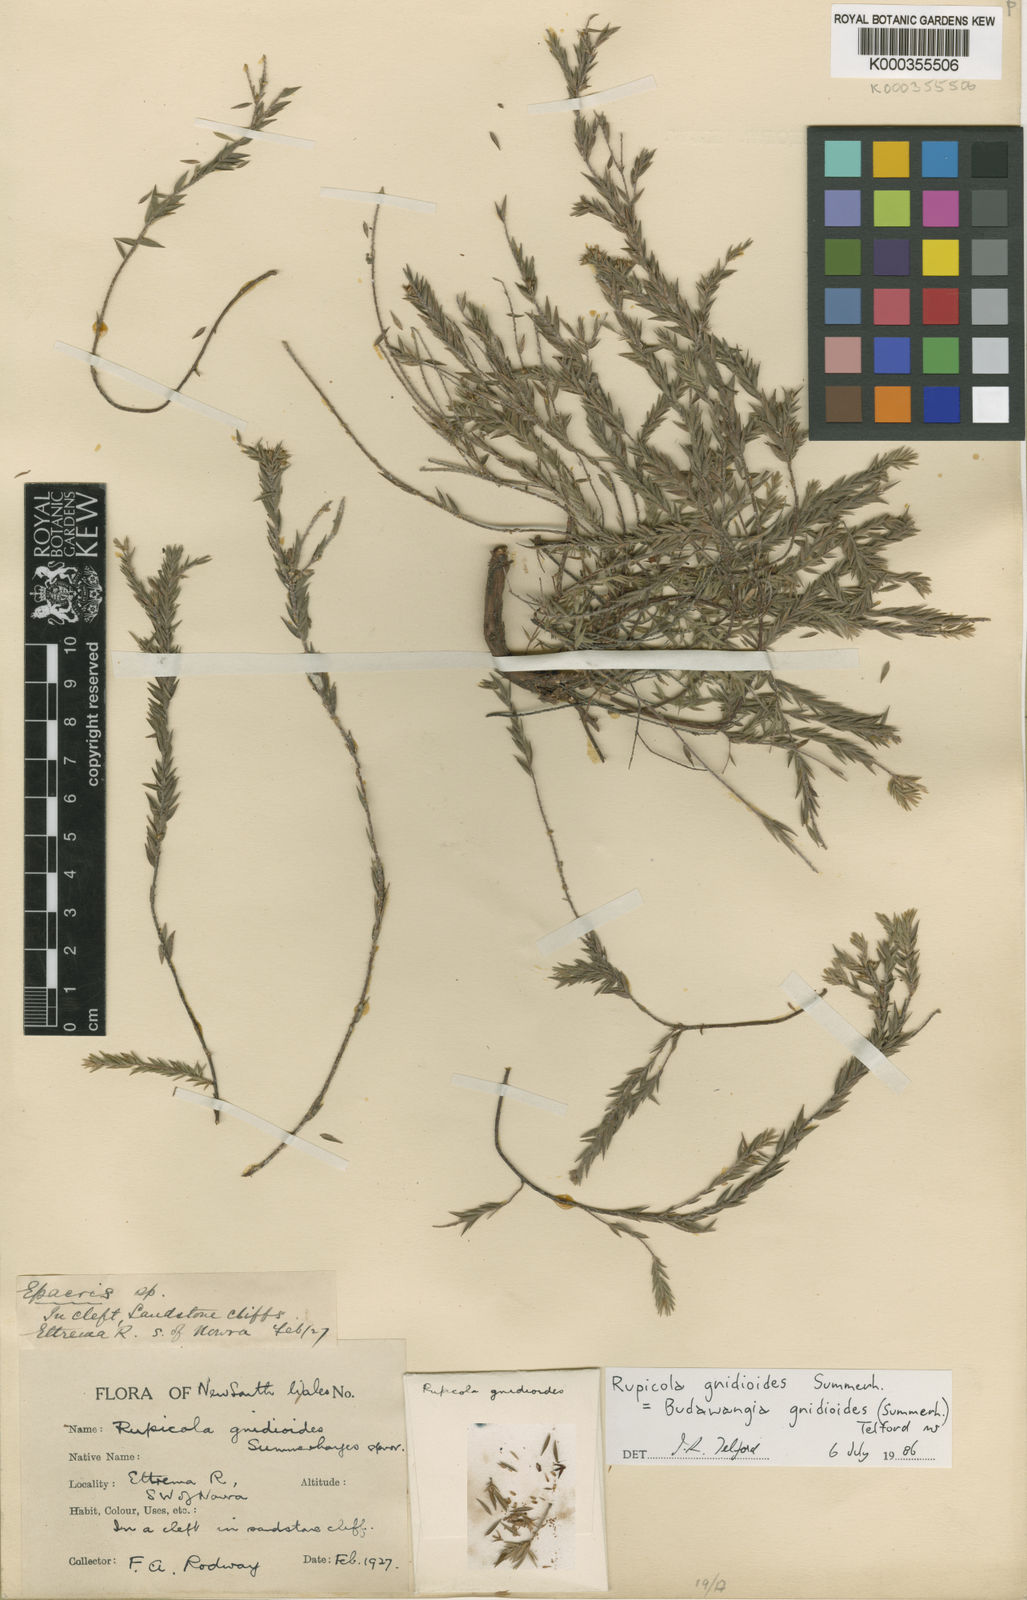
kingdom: Plantae
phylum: Tracheophyta
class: Magnoliopsida
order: Ericales
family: Ericaceae
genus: Epacris
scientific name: Epacris gnidioides
